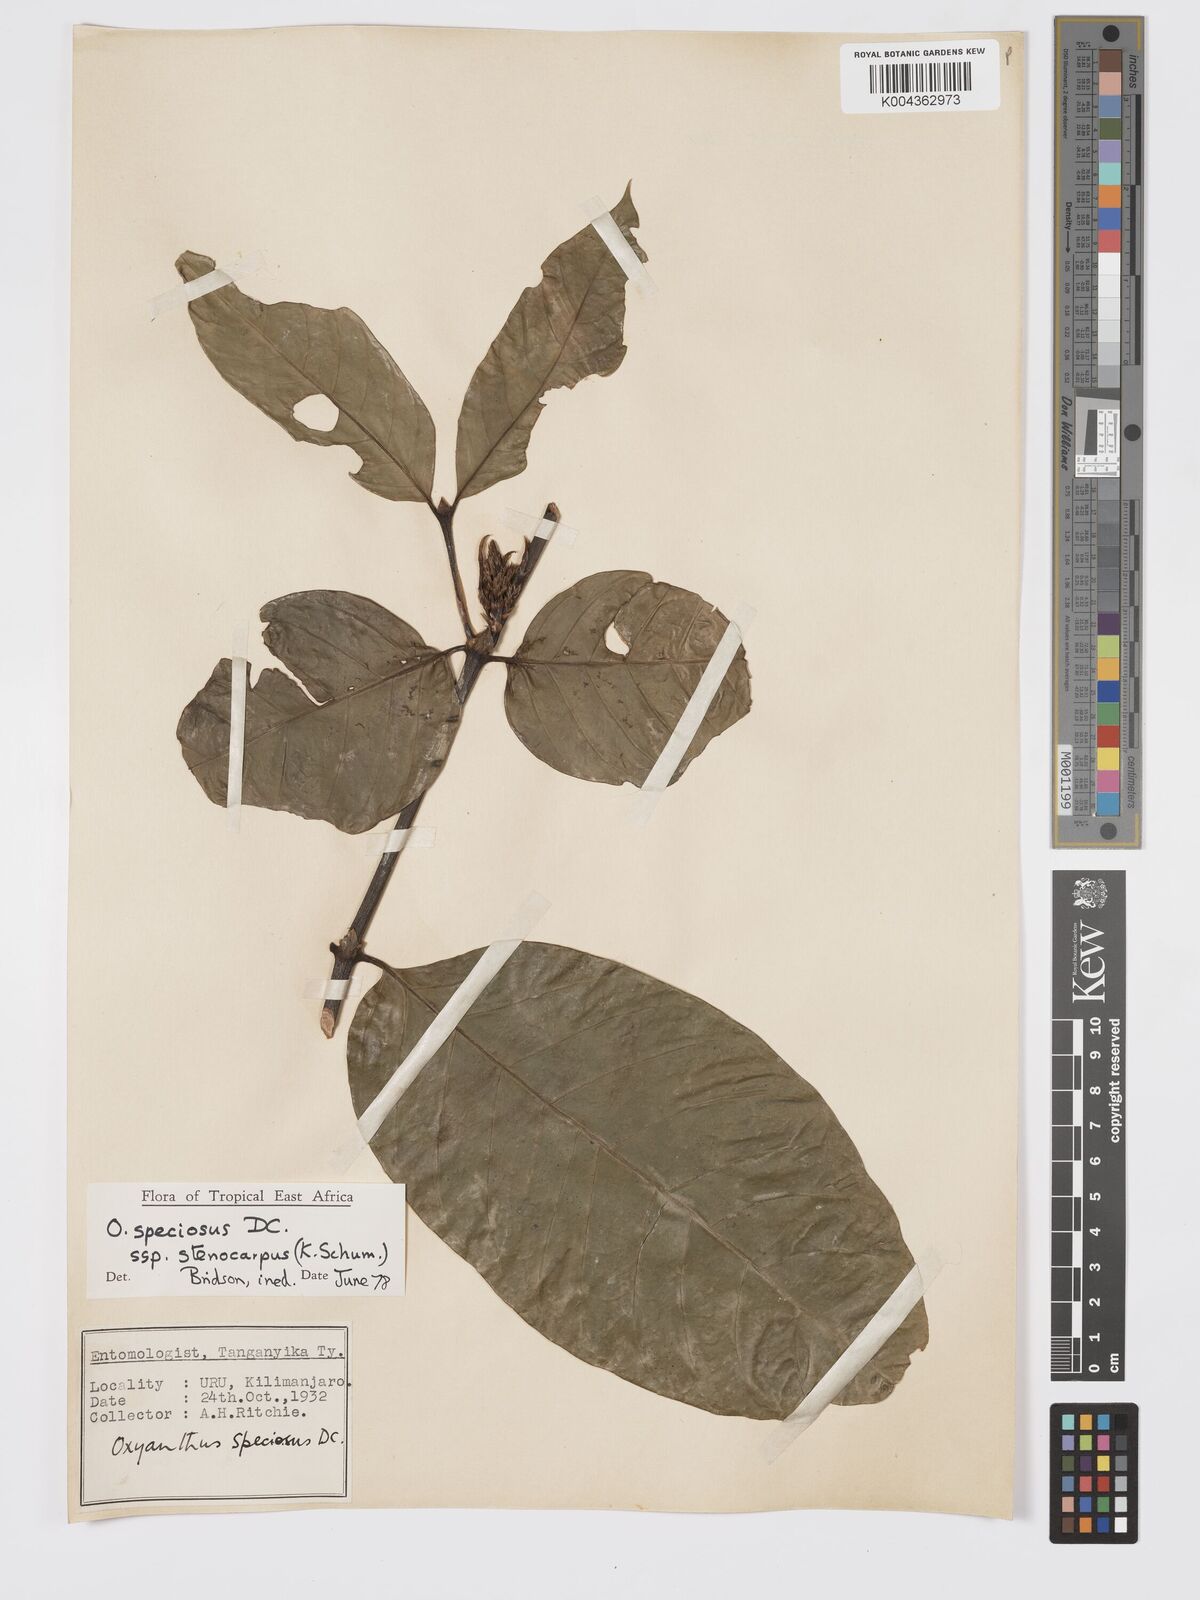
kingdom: Plantae
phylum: Tracheophyta
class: Magnoliopsida
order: Gentianales
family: Rubiaceae
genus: Oxyanthus
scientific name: Oxyanthus speciosus
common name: Whipstick loquat
